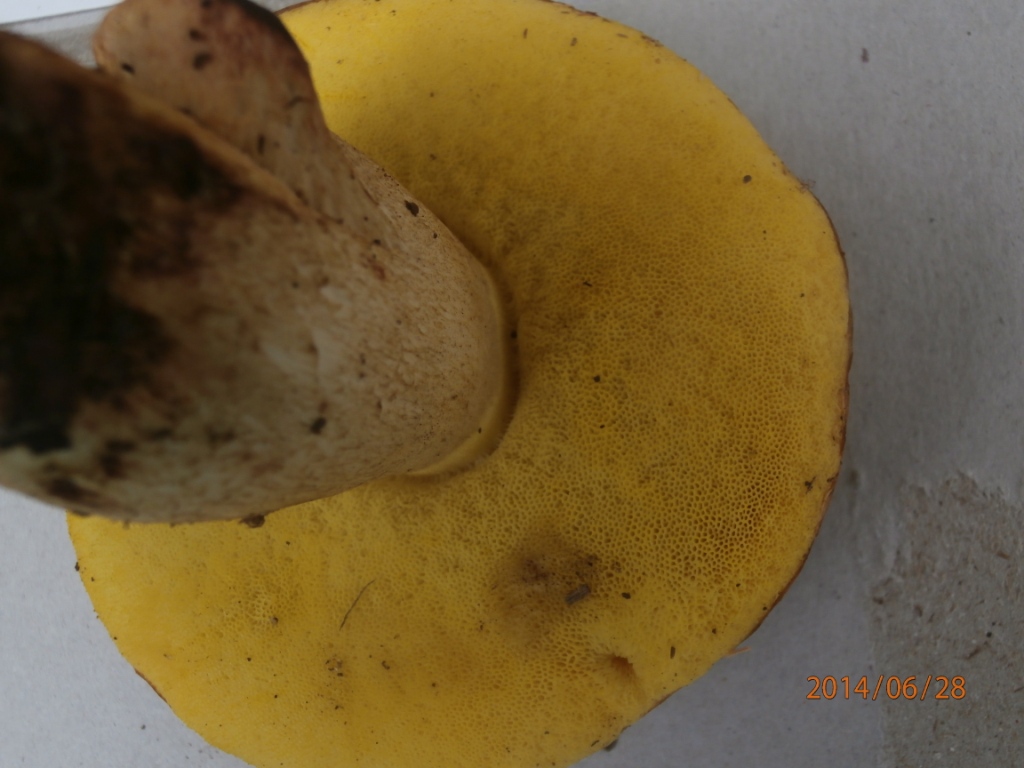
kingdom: Fungi
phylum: Basidiomycota
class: Agaricomycetes
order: Boletales
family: Boletaceae
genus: Hemileccinum
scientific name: Hemileccinum impolitum
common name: bleg rørhat
